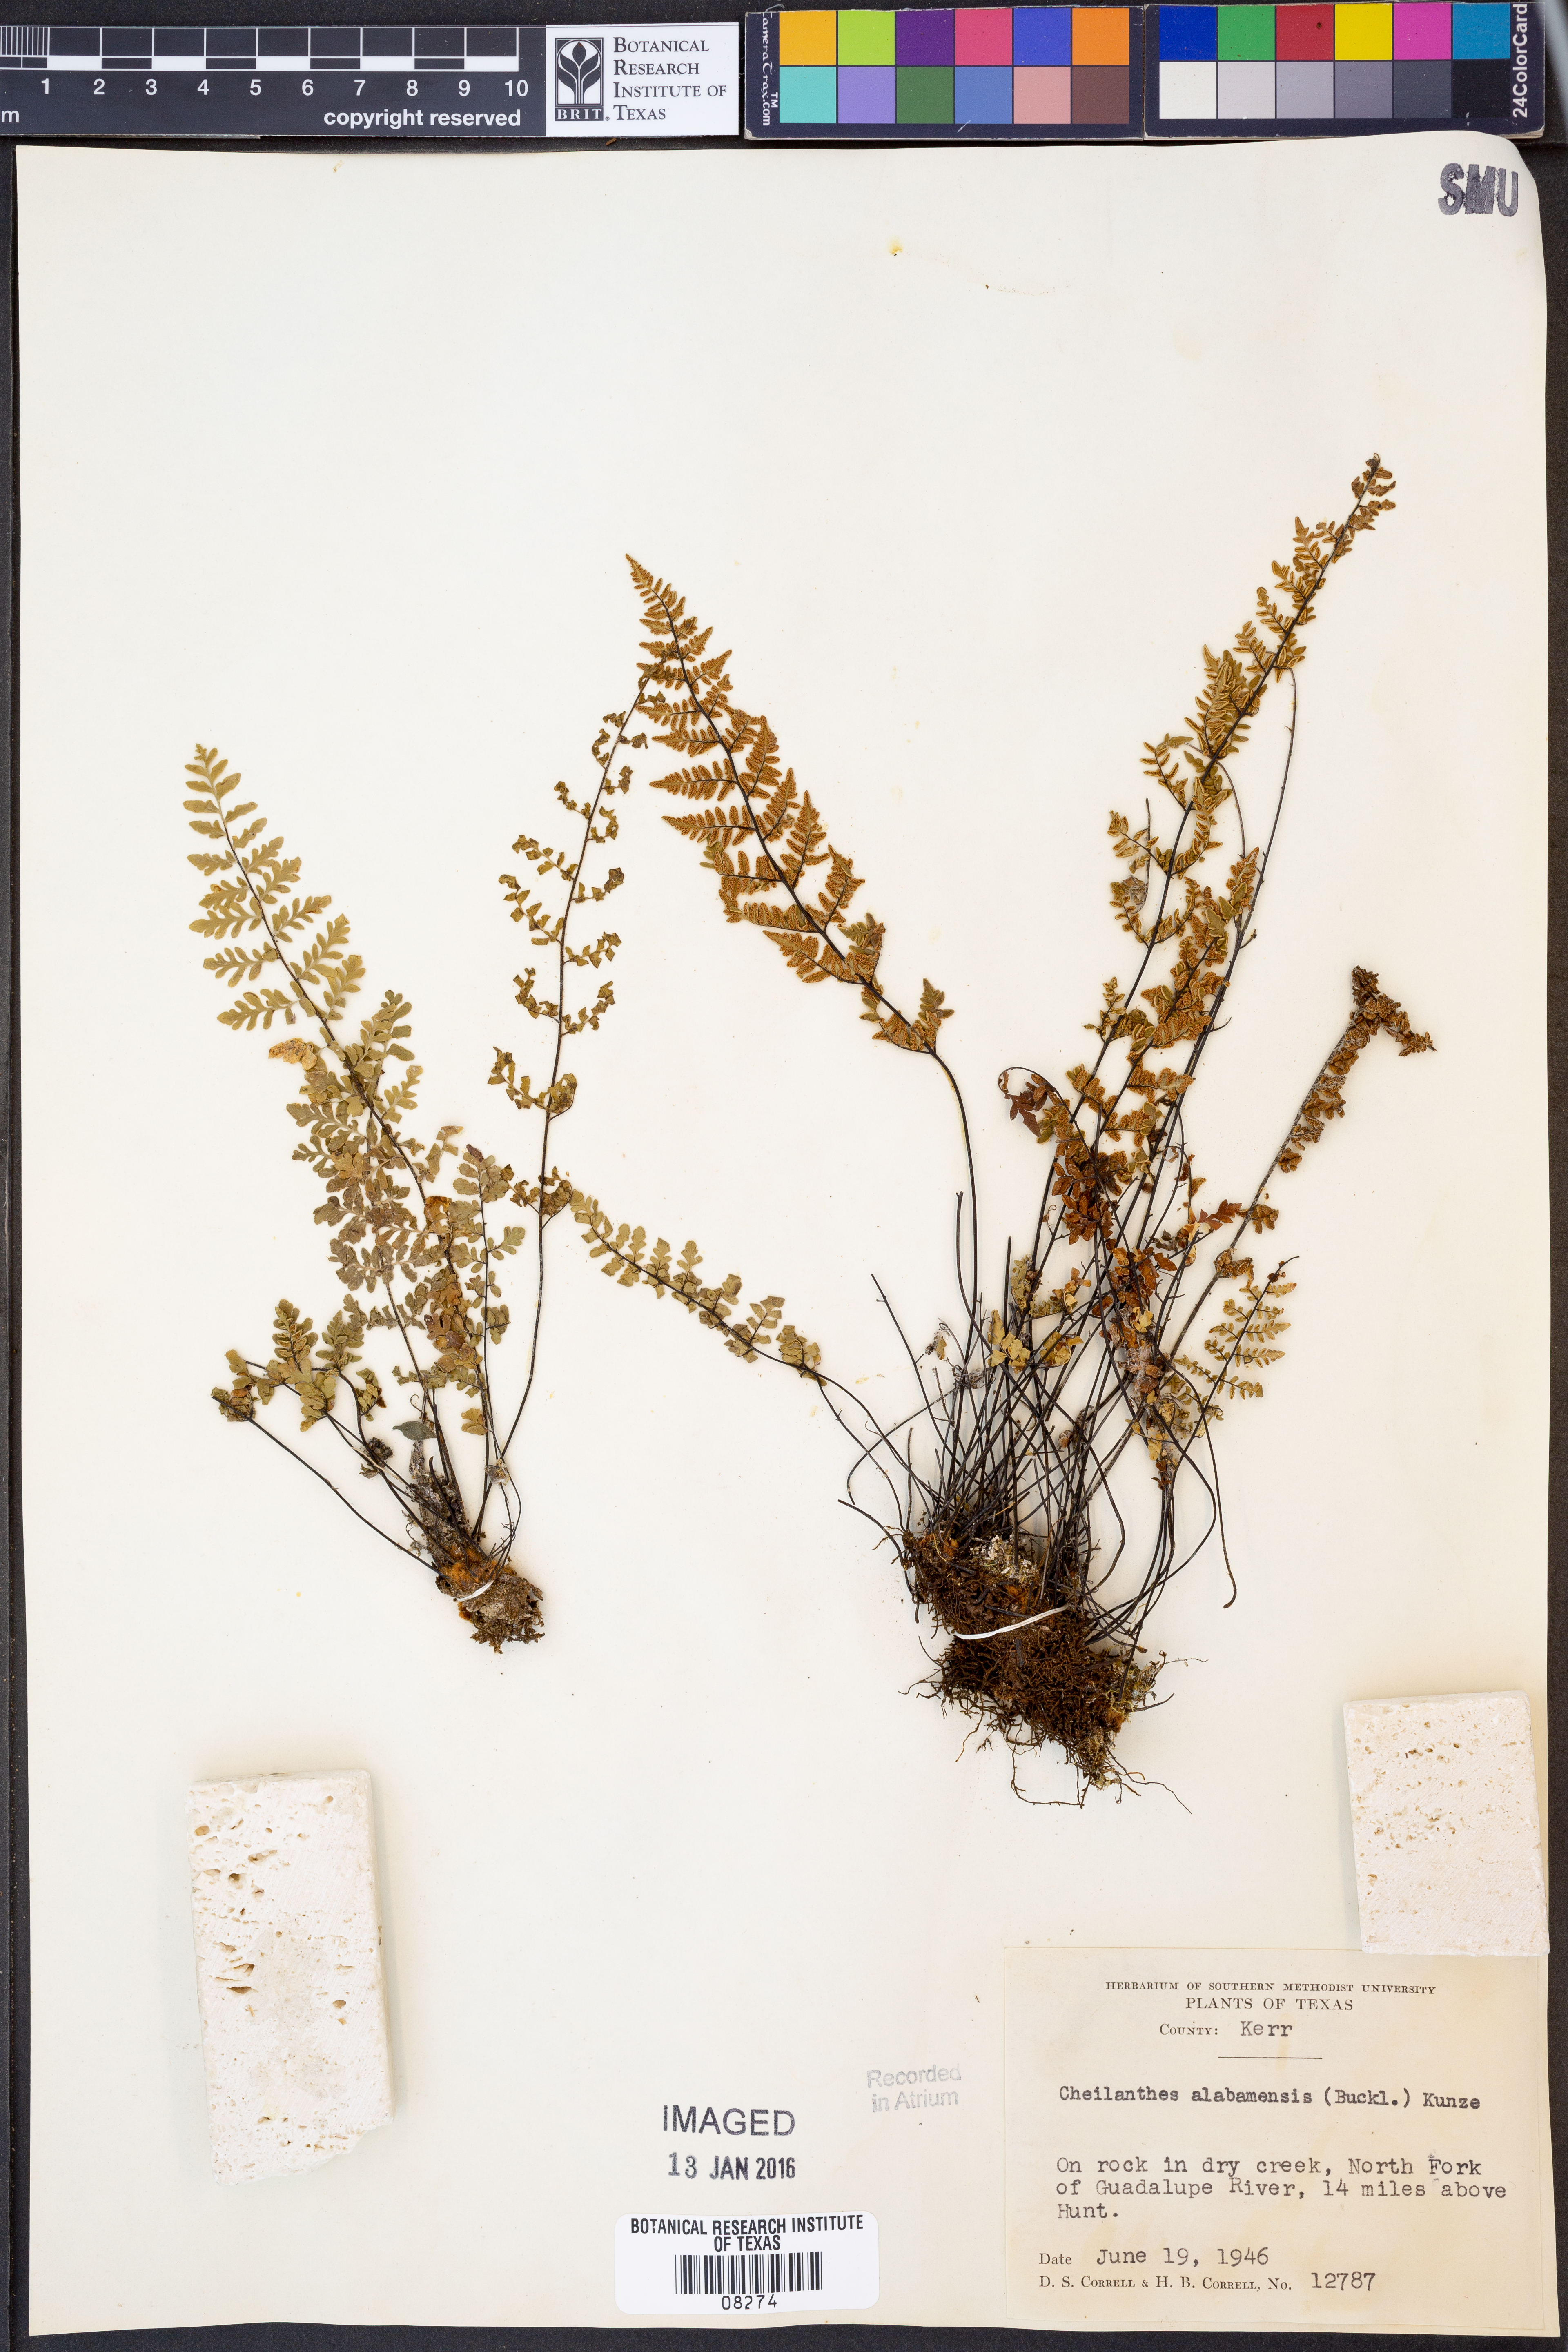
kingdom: Plantae
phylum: Tracheophyta
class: Polypodiopsida
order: Polypodiales
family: Pteridaceae
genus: Myriopteris
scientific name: Myriopteris alabamensis
